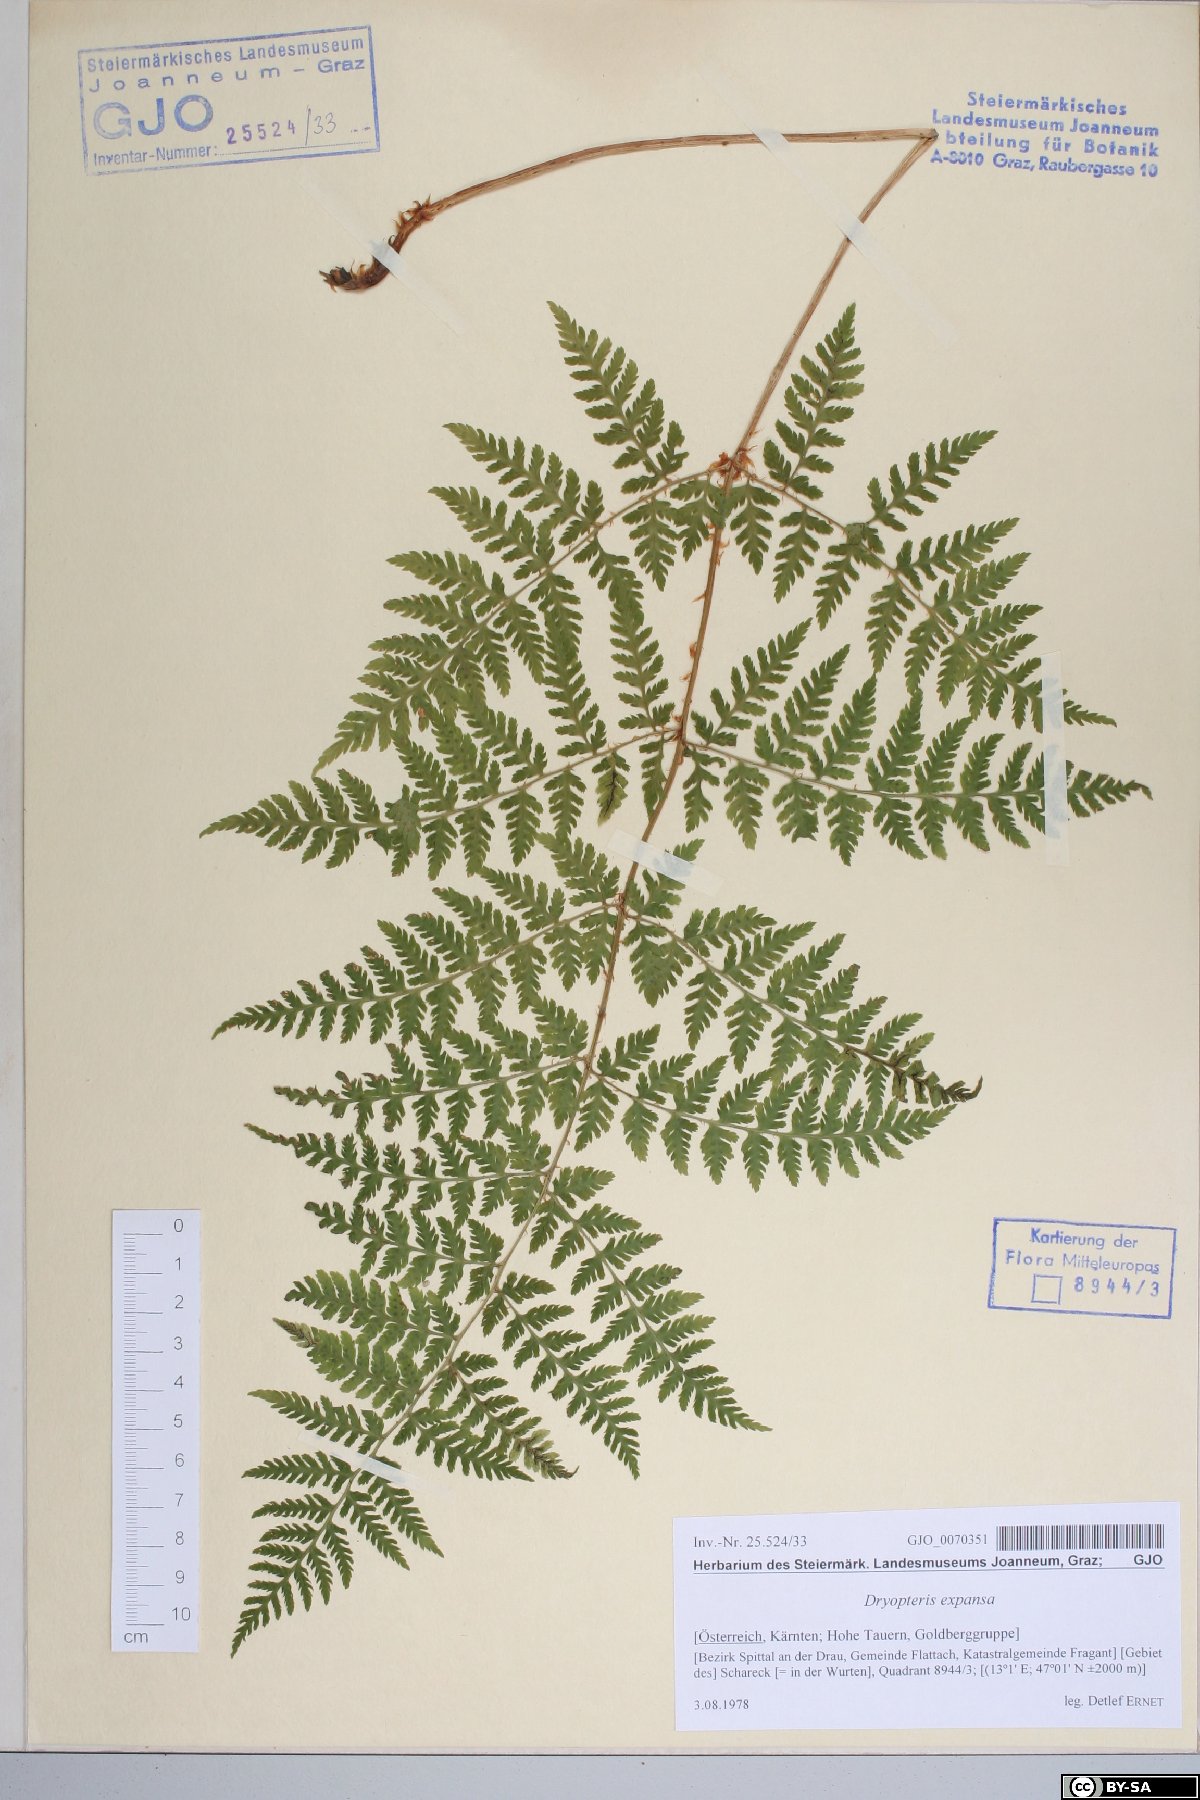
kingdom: Plantae
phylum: Tracheophyta
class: Polypodiopsida
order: Polypodiales
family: Dryopteridaceae
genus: Dryopteris
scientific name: Dryopteris expansa
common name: Northern buckler fern
